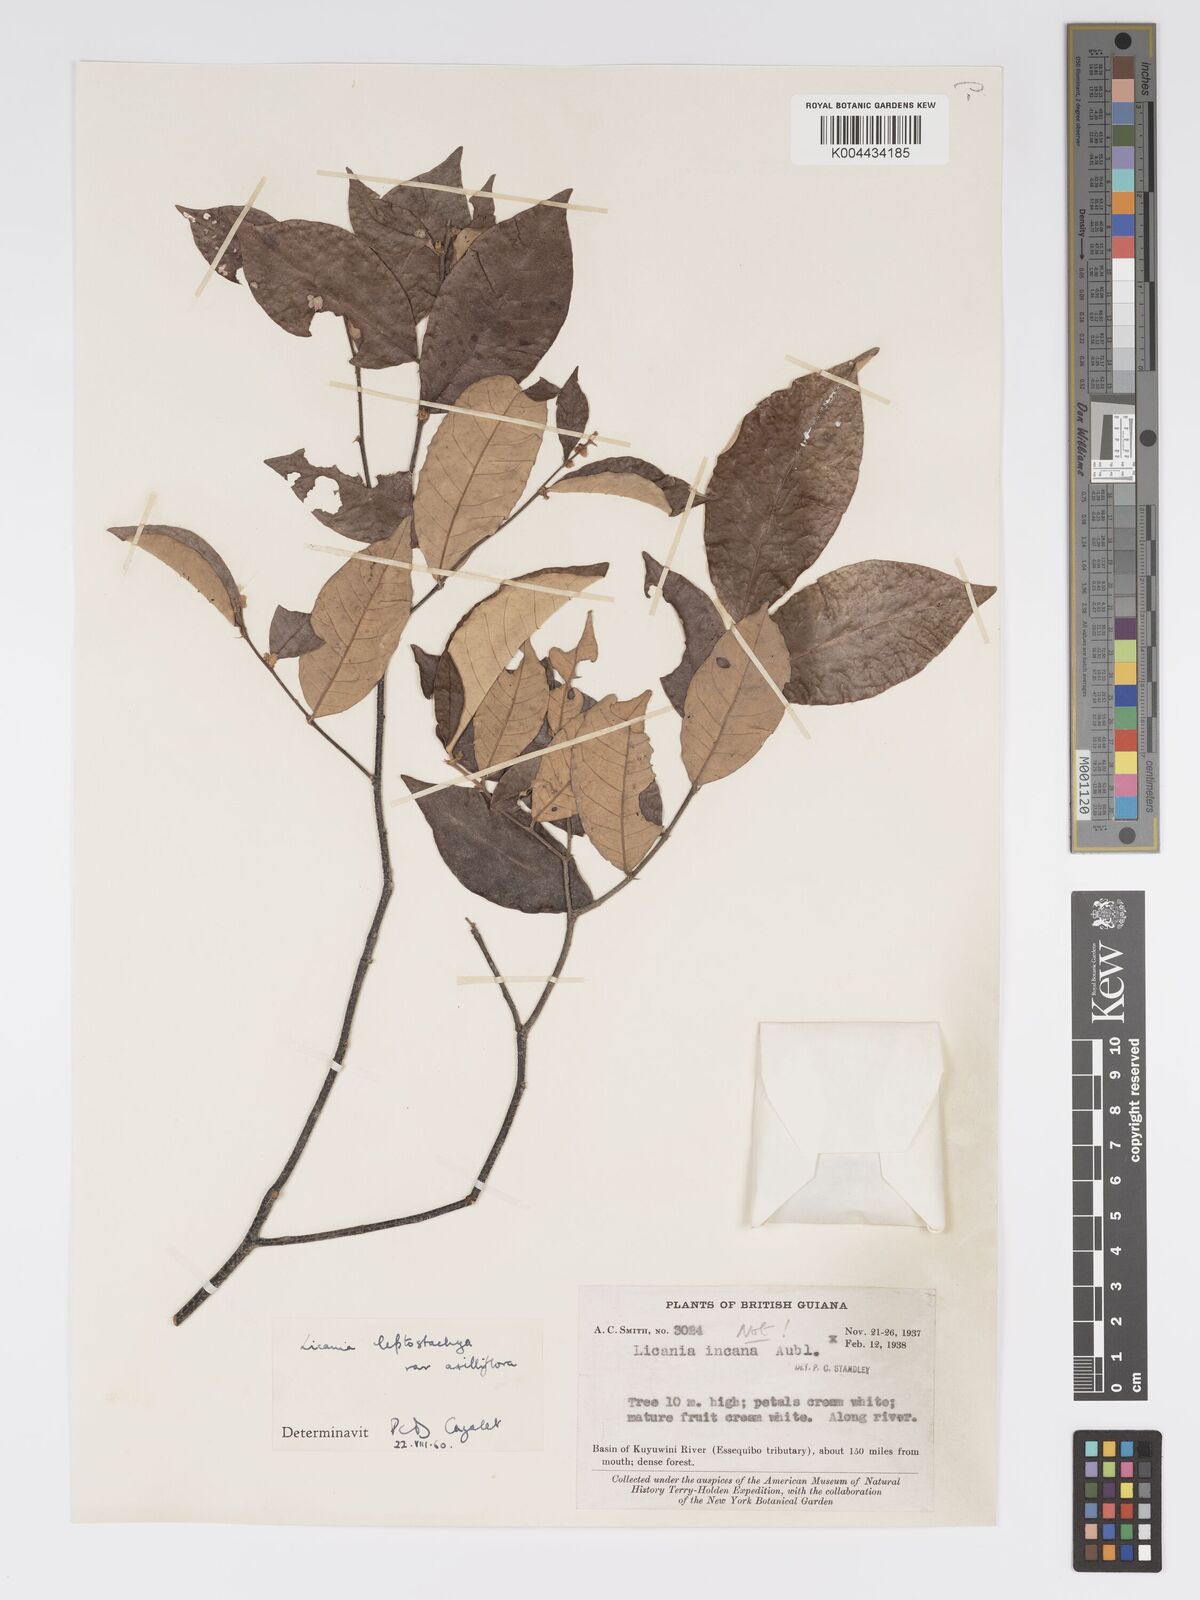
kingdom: Plantae
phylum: Tracheophyta
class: Magnoliopsida
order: Malpighiales
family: Chrysobalanaceae
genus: Licania
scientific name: Licania leptostachya
